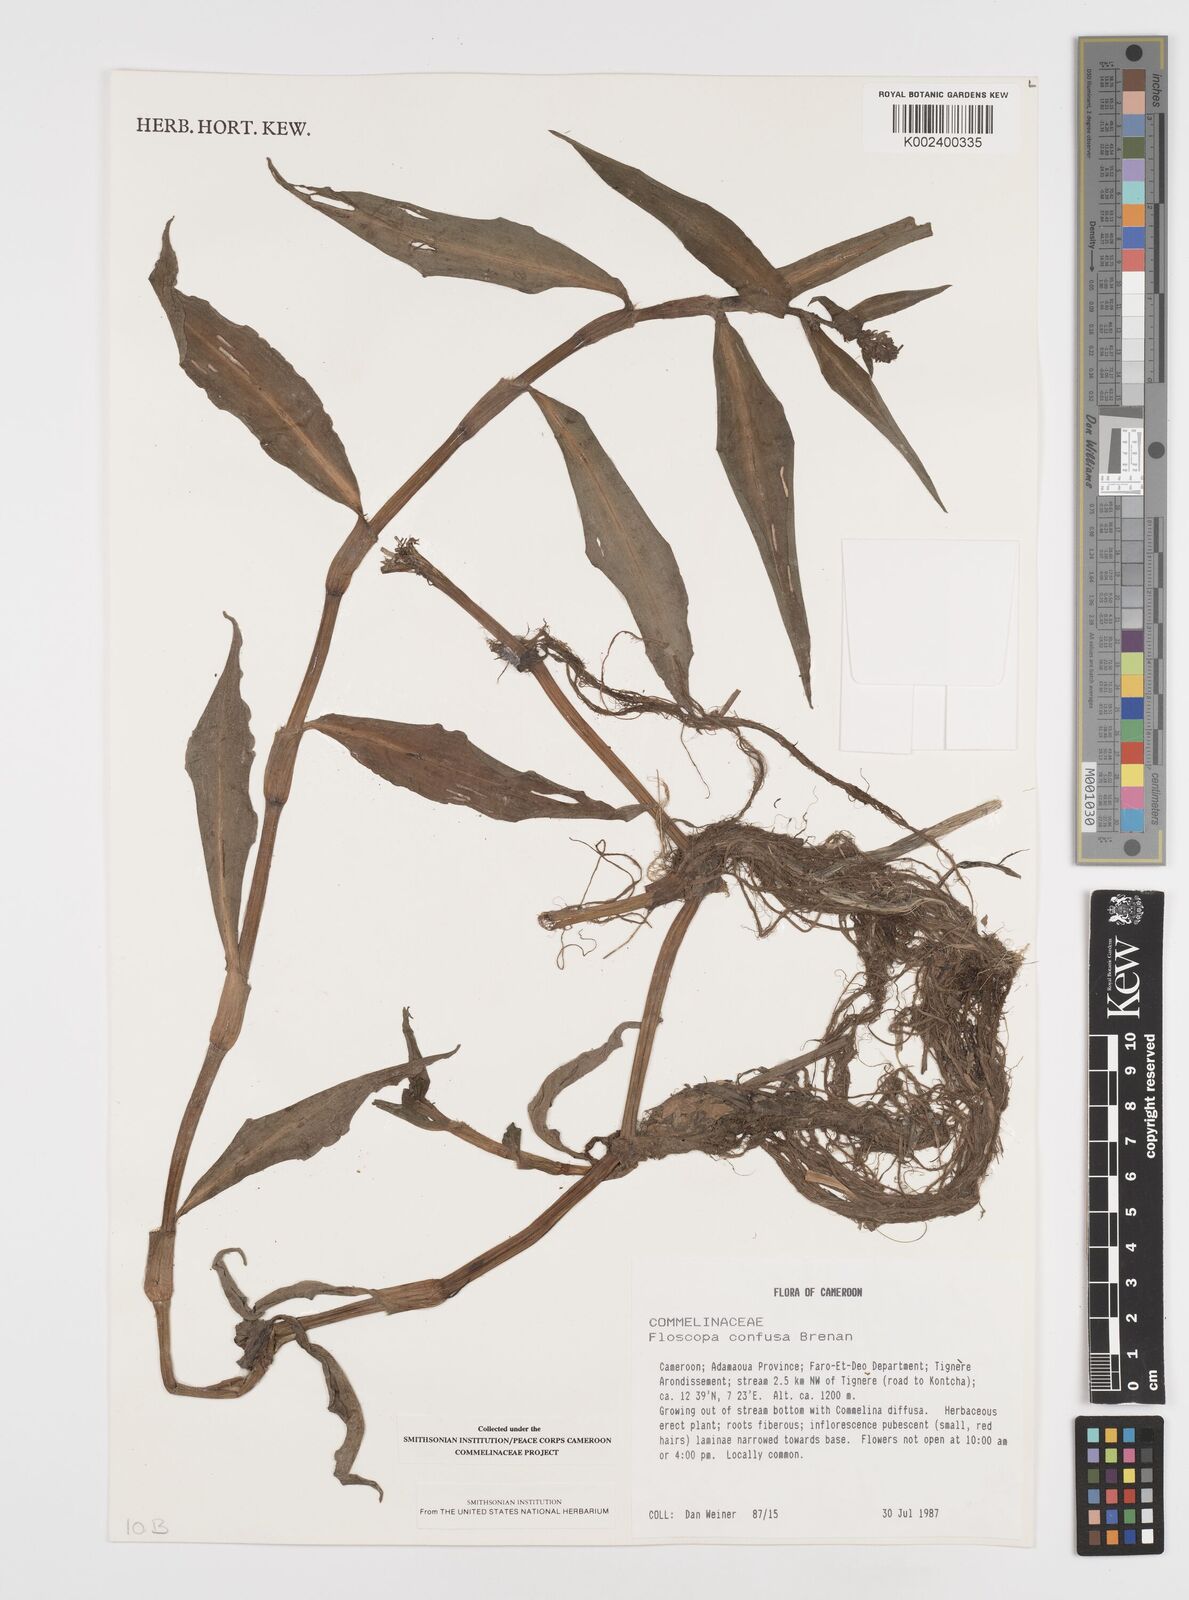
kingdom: Plantae
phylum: Tracheophyta
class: Liliopsida
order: Commelinales
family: Commelinaceae
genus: Floscopa
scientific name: Floscopa confusa
